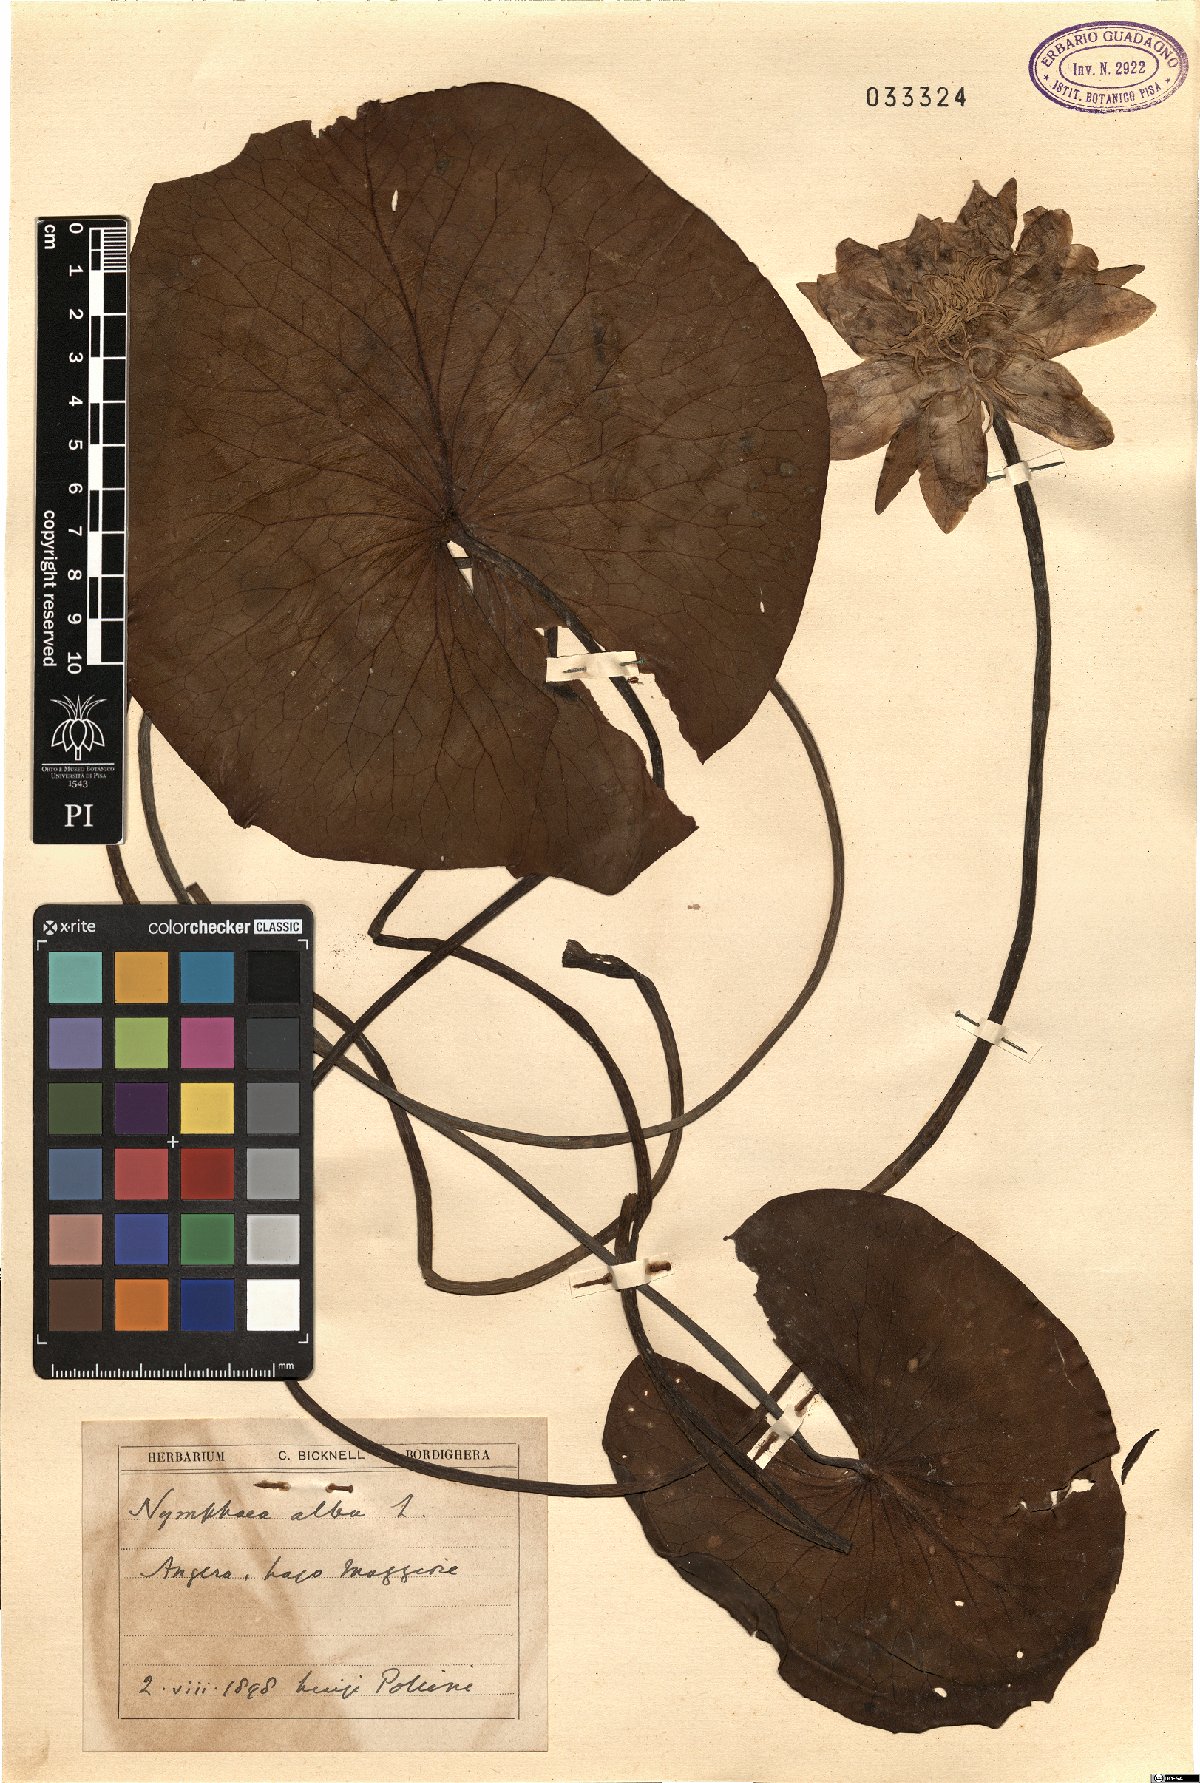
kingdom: Plantae
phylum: Tracheophyta
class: Magnoliopsida
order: Nymphaeales
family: Nymphaeaceae
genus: Nymphaea
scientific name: Nymphaea alba
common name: White water-lily
